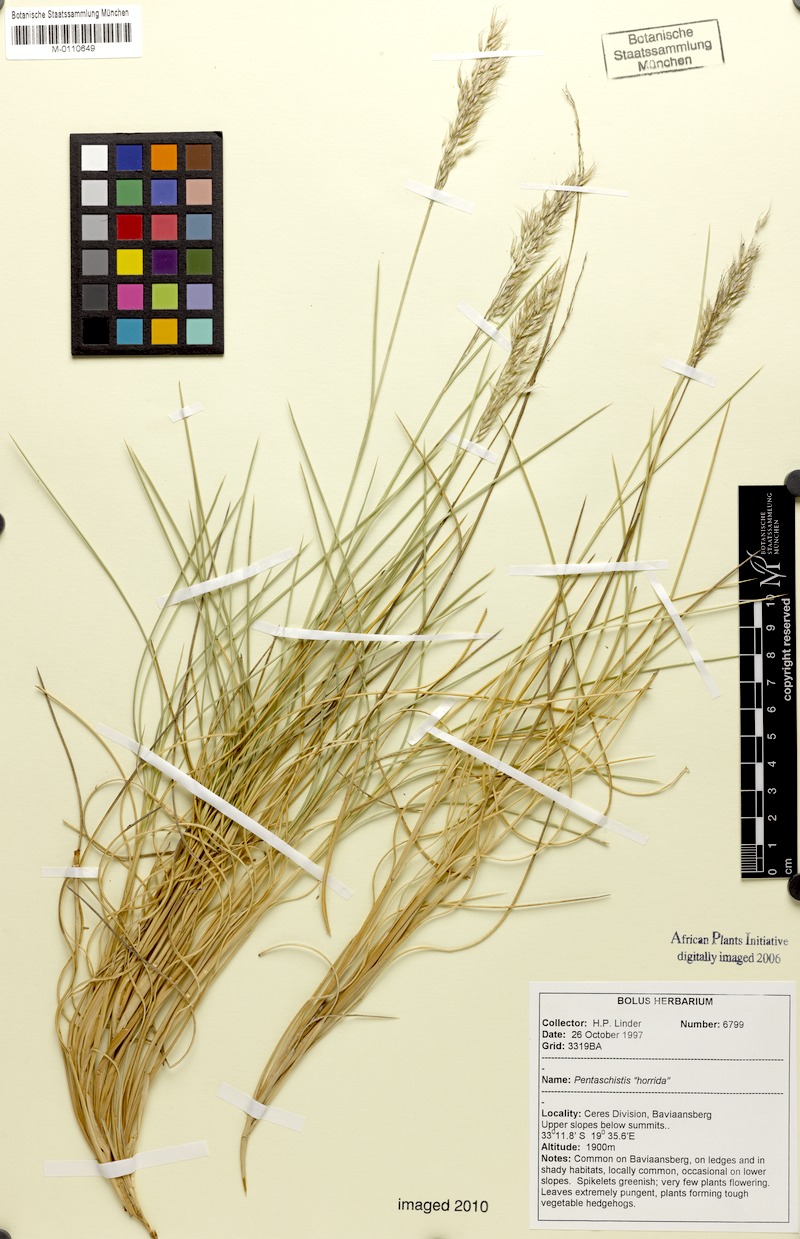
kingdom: Plantae
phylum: Tracheophyta
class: Liliopsida
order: Poales
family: Poaceae
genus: Pentameris
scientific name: Pentameris horrida
